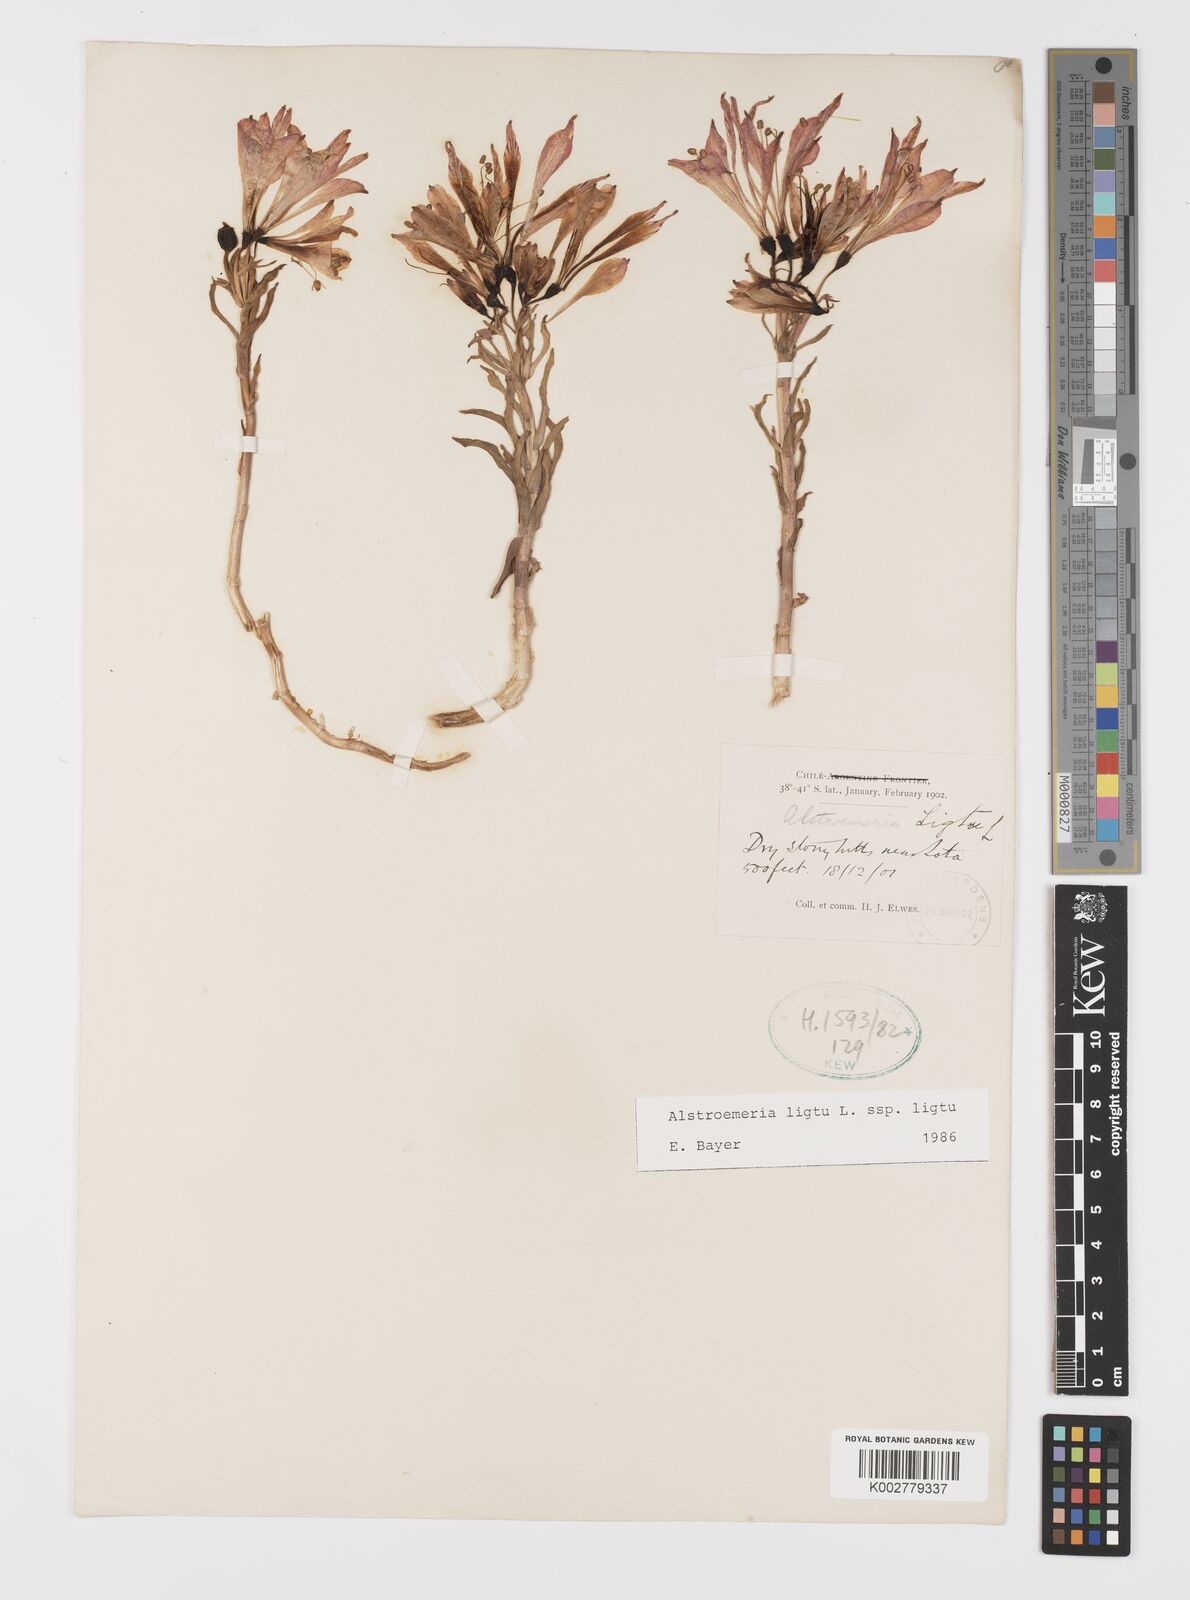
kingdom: Plantae
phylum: Tracheophyta
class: Liliopsida
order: Liliales
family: Alstroemeriaceae
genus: Alstroemeria
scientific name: Alstroemeria ligtu
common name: St. martin's-flower
